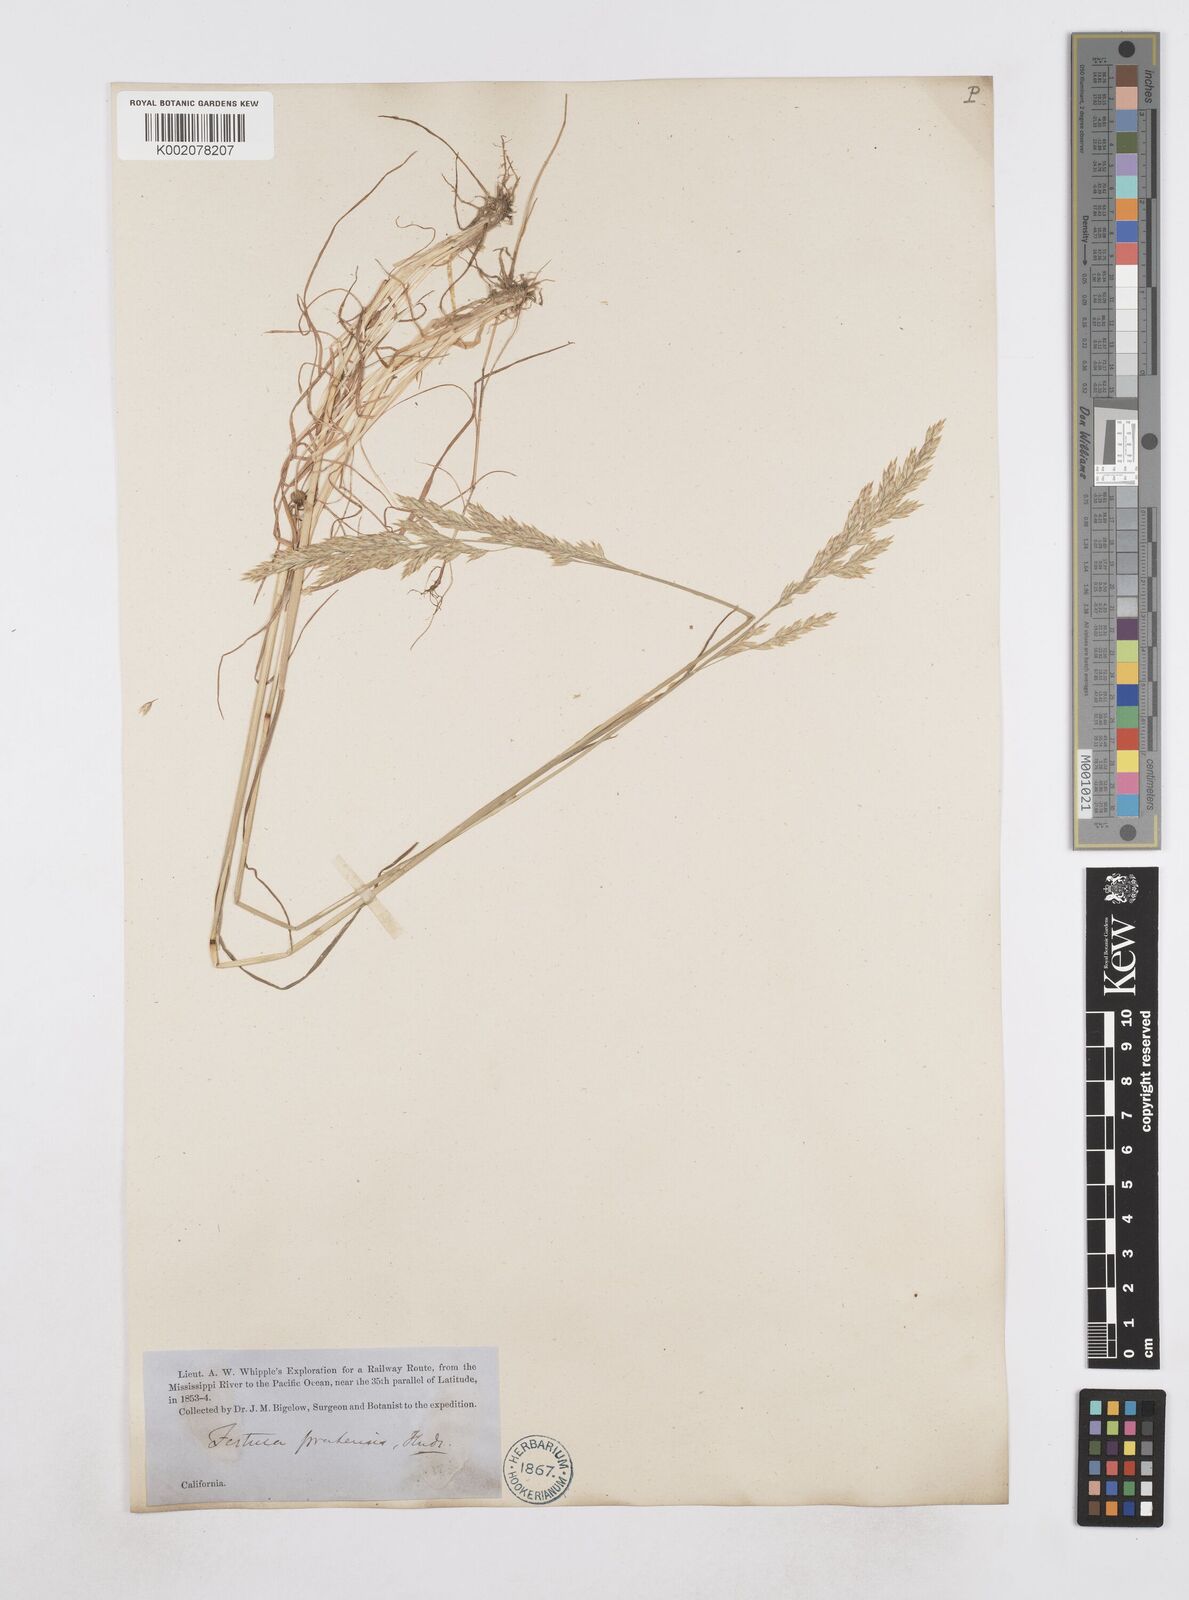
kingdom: Plantae
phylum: Tracheophyta
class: Liliopsida
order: Poales
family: Poaceae
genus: Poa
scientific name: Poa
